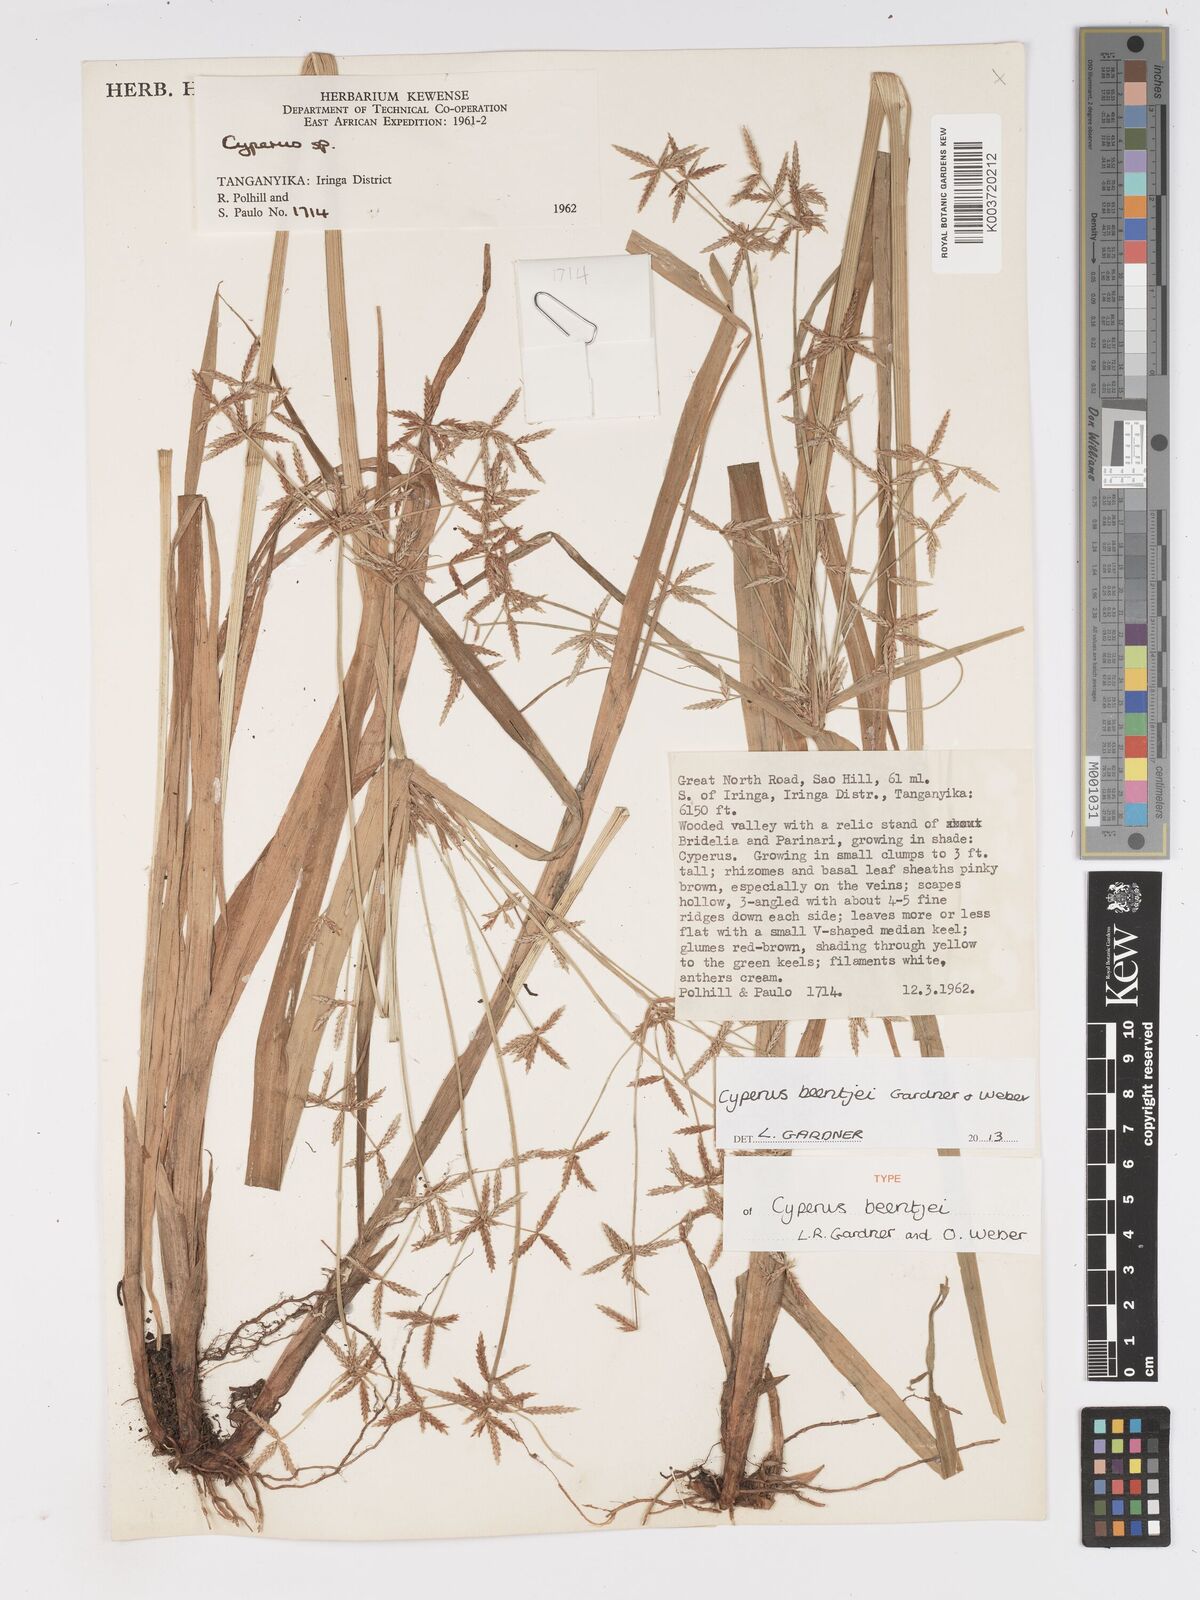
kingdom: Plantae
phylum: Tracheophyta
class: Liliopsida
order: Poales
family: Cyperaceae
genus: Cyperus
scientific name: Cyperus beentjei
